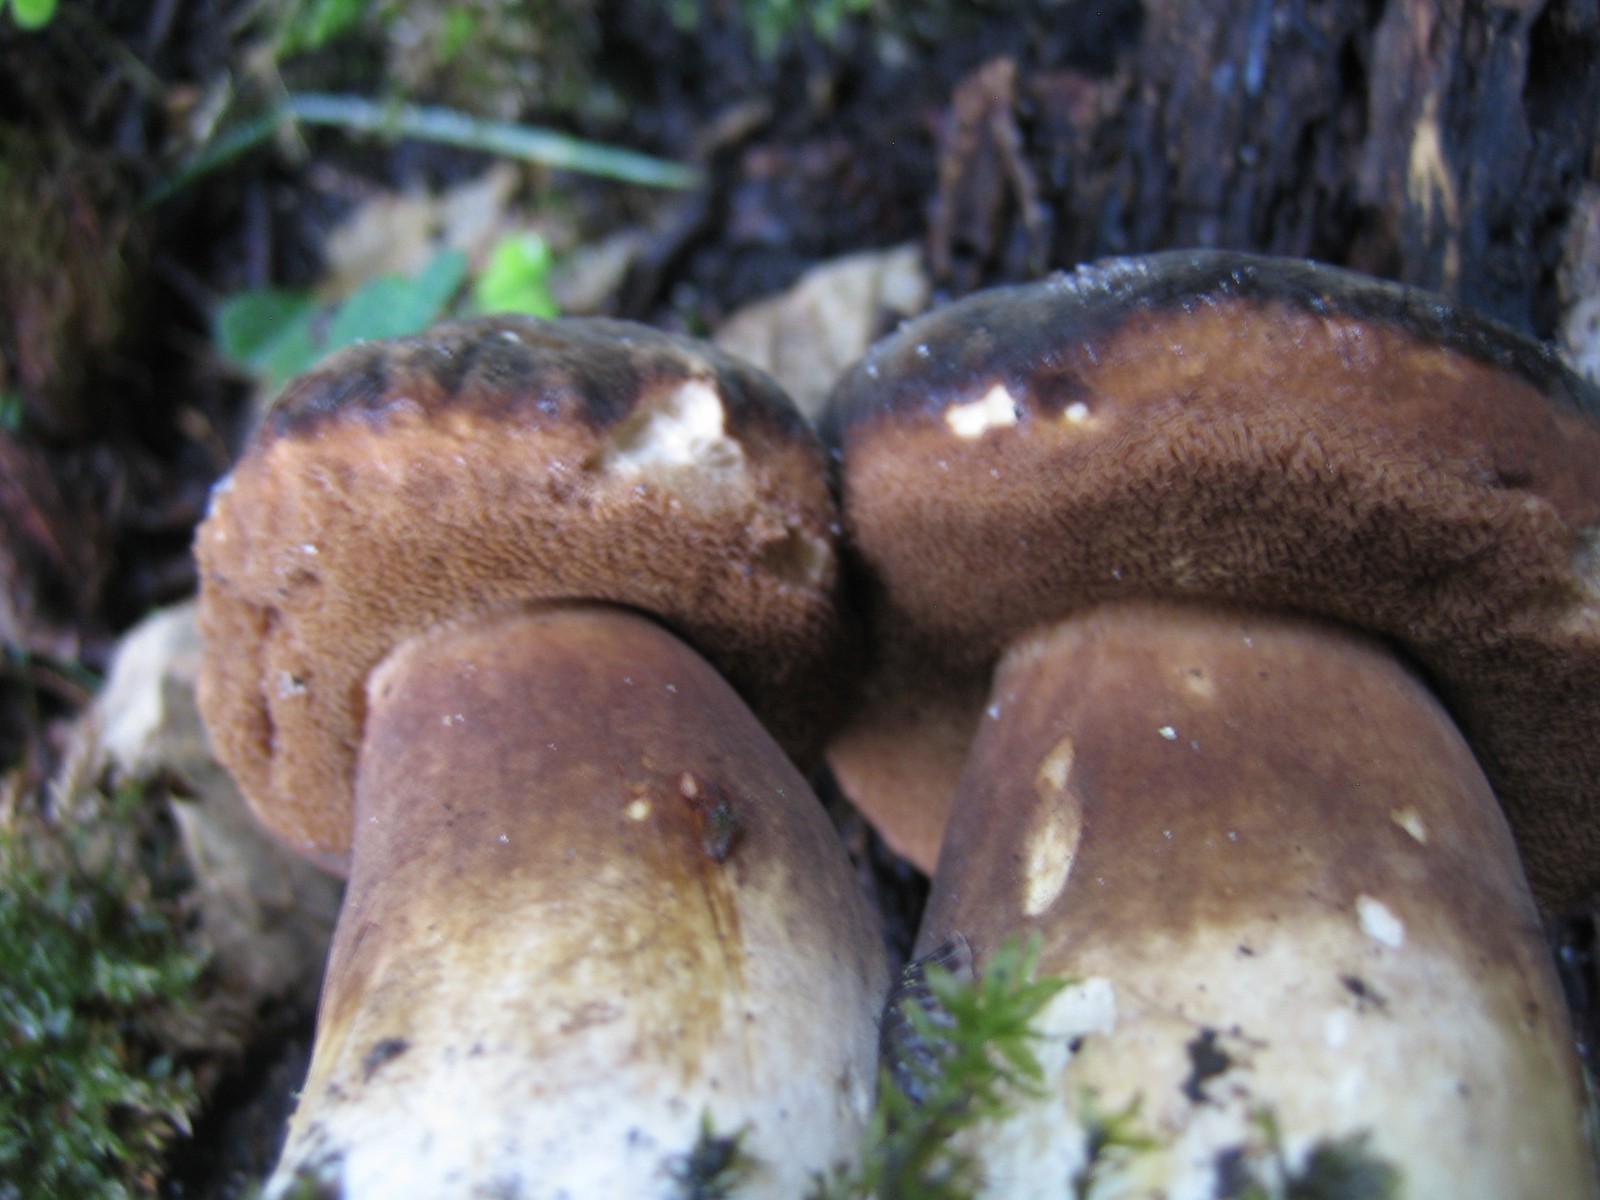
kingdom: Fungi
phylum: Basidiomycota
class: Agaricomycetes
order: Boletales
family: Boletaceae
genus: Porphyrellus
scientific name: Porphyrellus porphyrosporus
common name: sodrørhat
